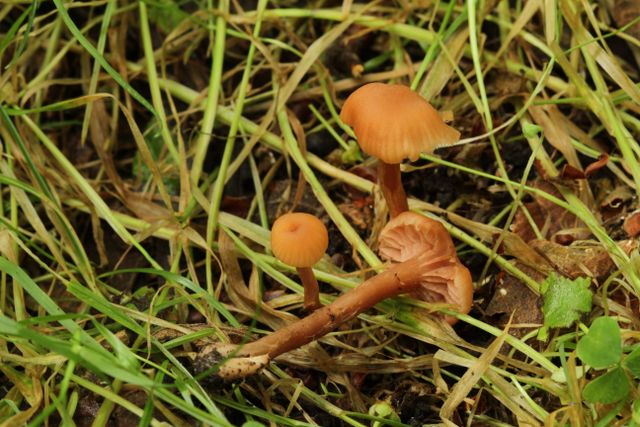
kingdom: Fungi
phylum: Basidiomycota
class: Agaricomycetes
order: Agaricales
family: Hydnangiaceae
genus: Laccaria
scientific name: Laccaria laccata
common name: rød ametysthat
